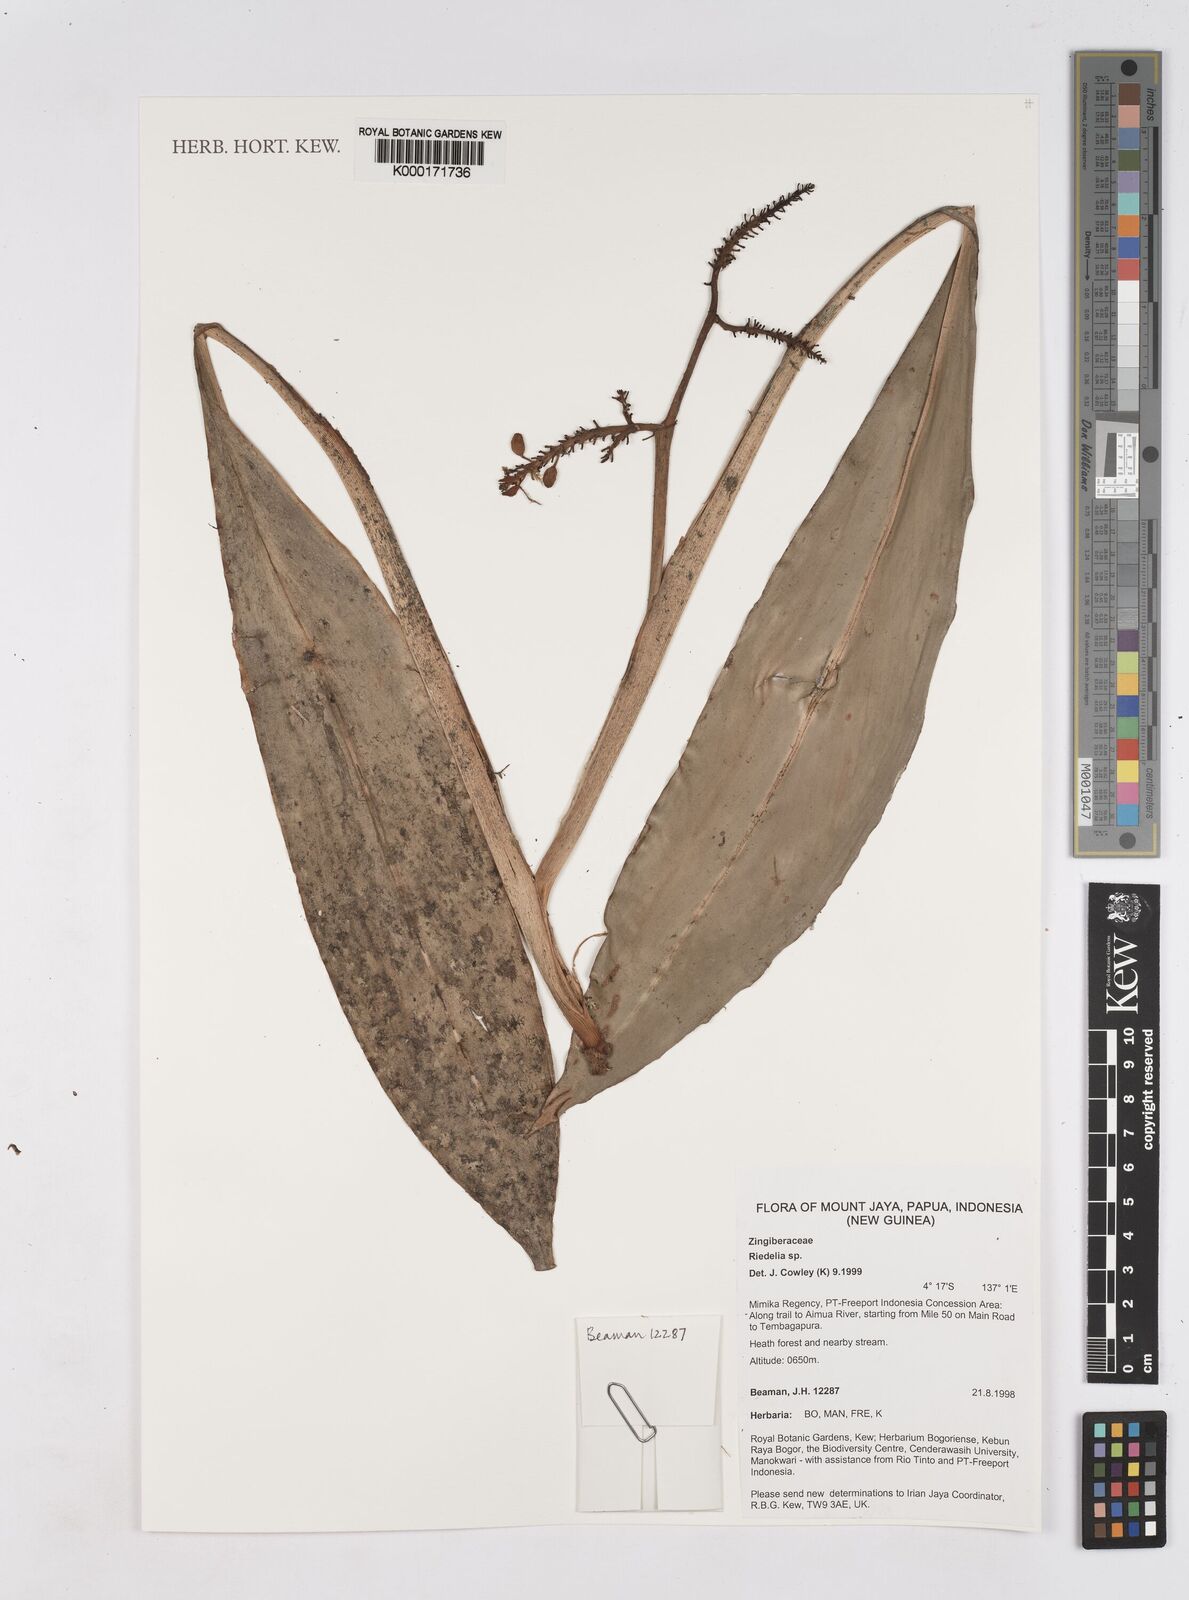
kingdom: Plantae
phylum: Tracheophyta
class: Liliopsida
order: Zingiberales
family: Zingiberaceae
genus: Riedelia
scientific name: Riedelia
